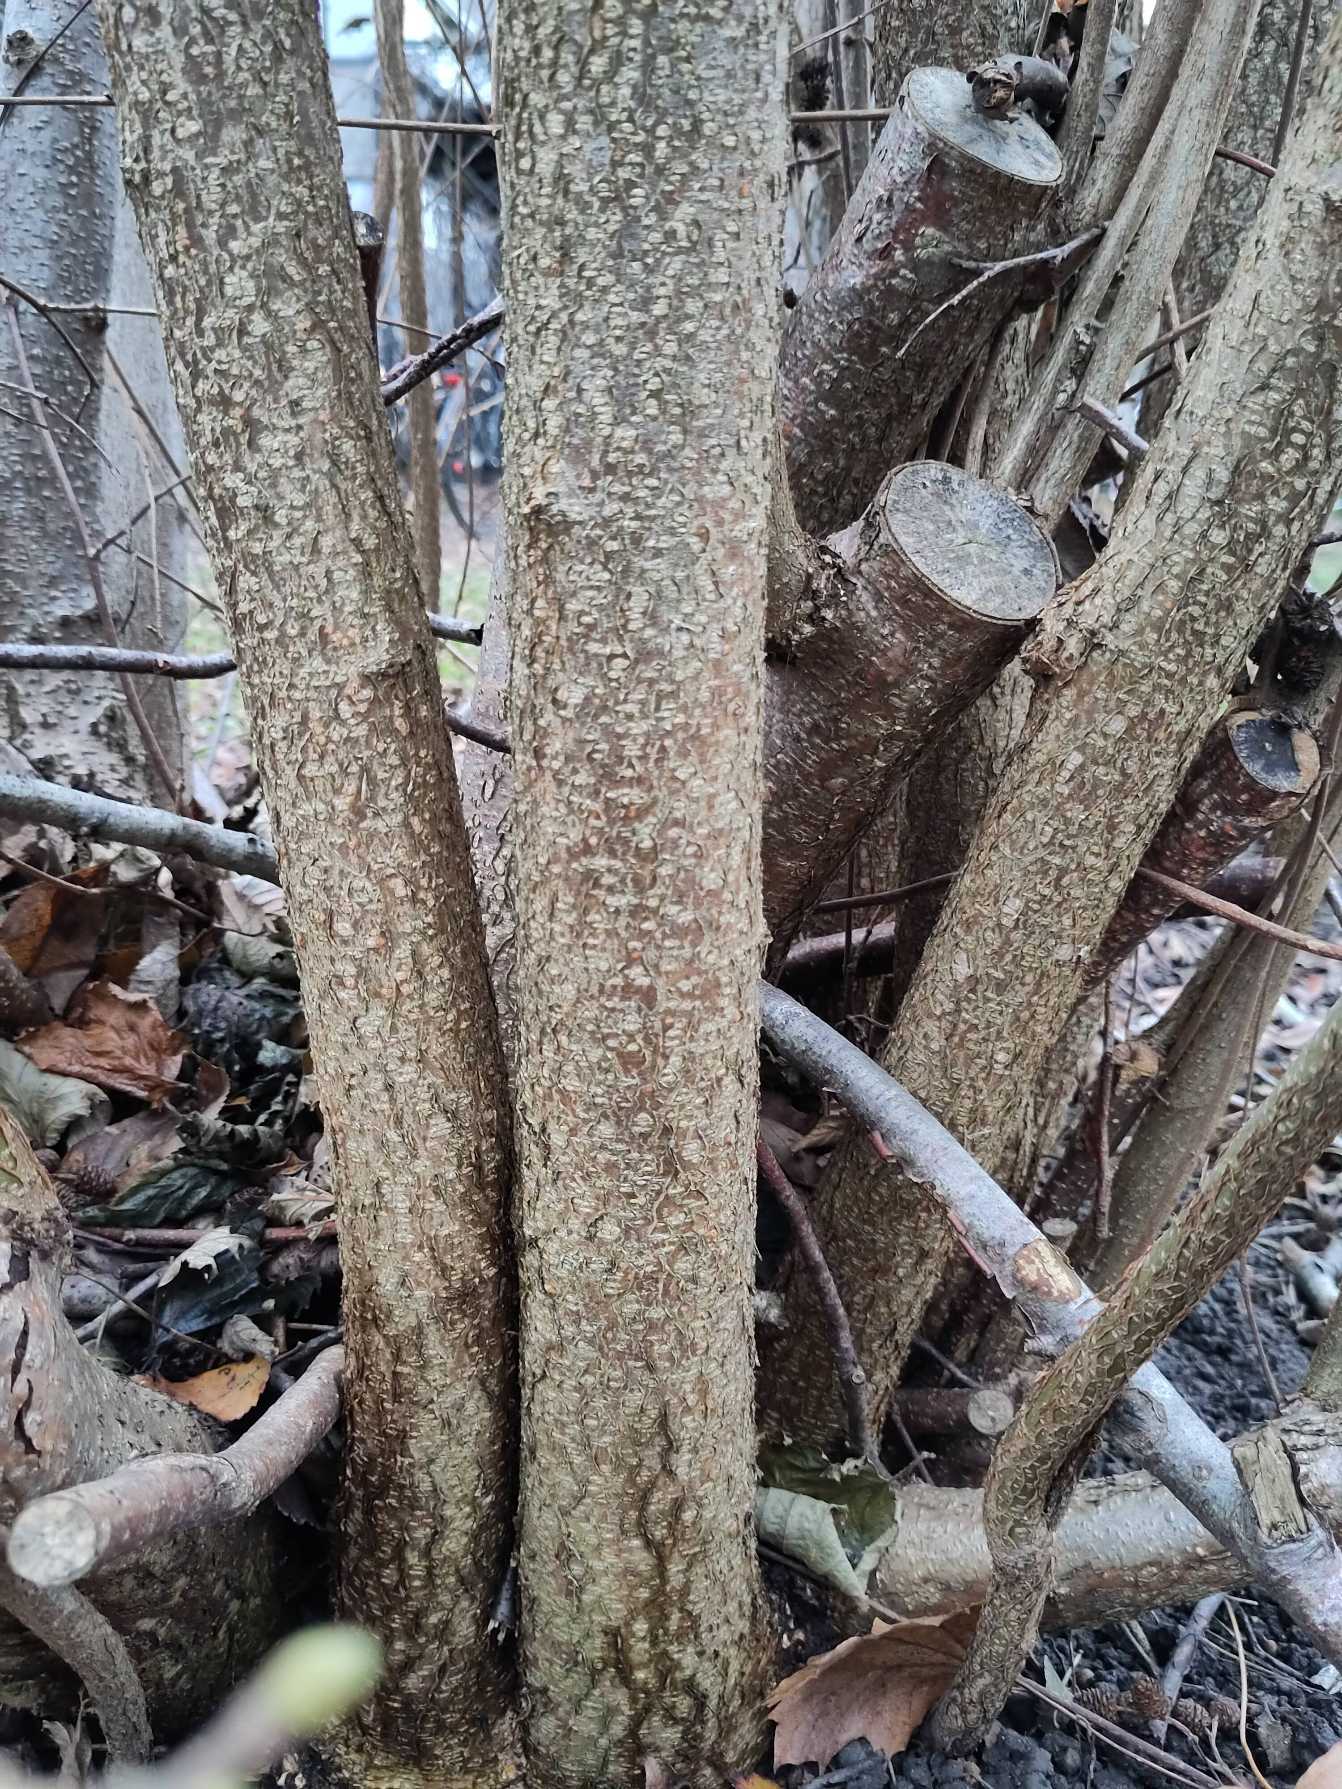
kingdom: Plantae
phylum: Tracheophyta
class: Magnoliopsida
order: Fagales
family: Betulaceae
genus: Corylus
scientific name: Corylus avellana
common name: Hassel
